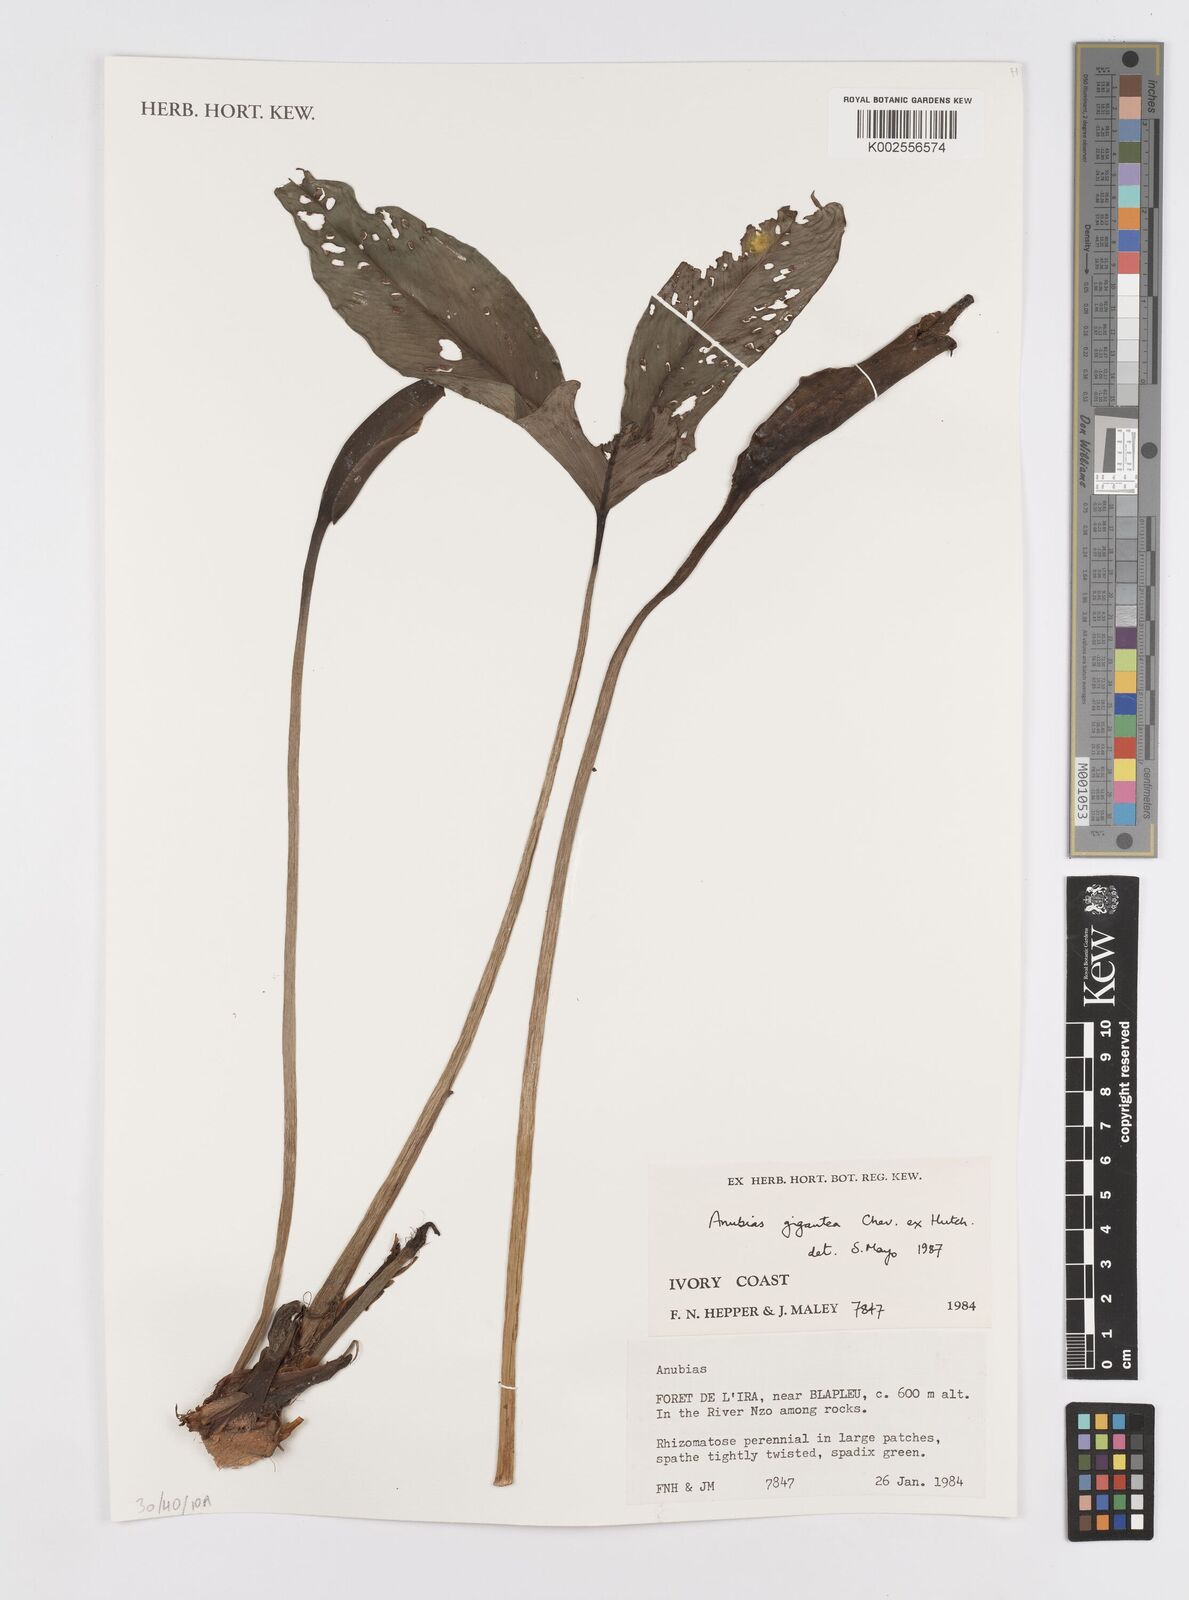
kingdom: Plantae
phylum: Tracheophyta
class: Liliopsida
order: Alismatales
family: Araceae
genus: Anubias
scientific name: Anubias gigantea
